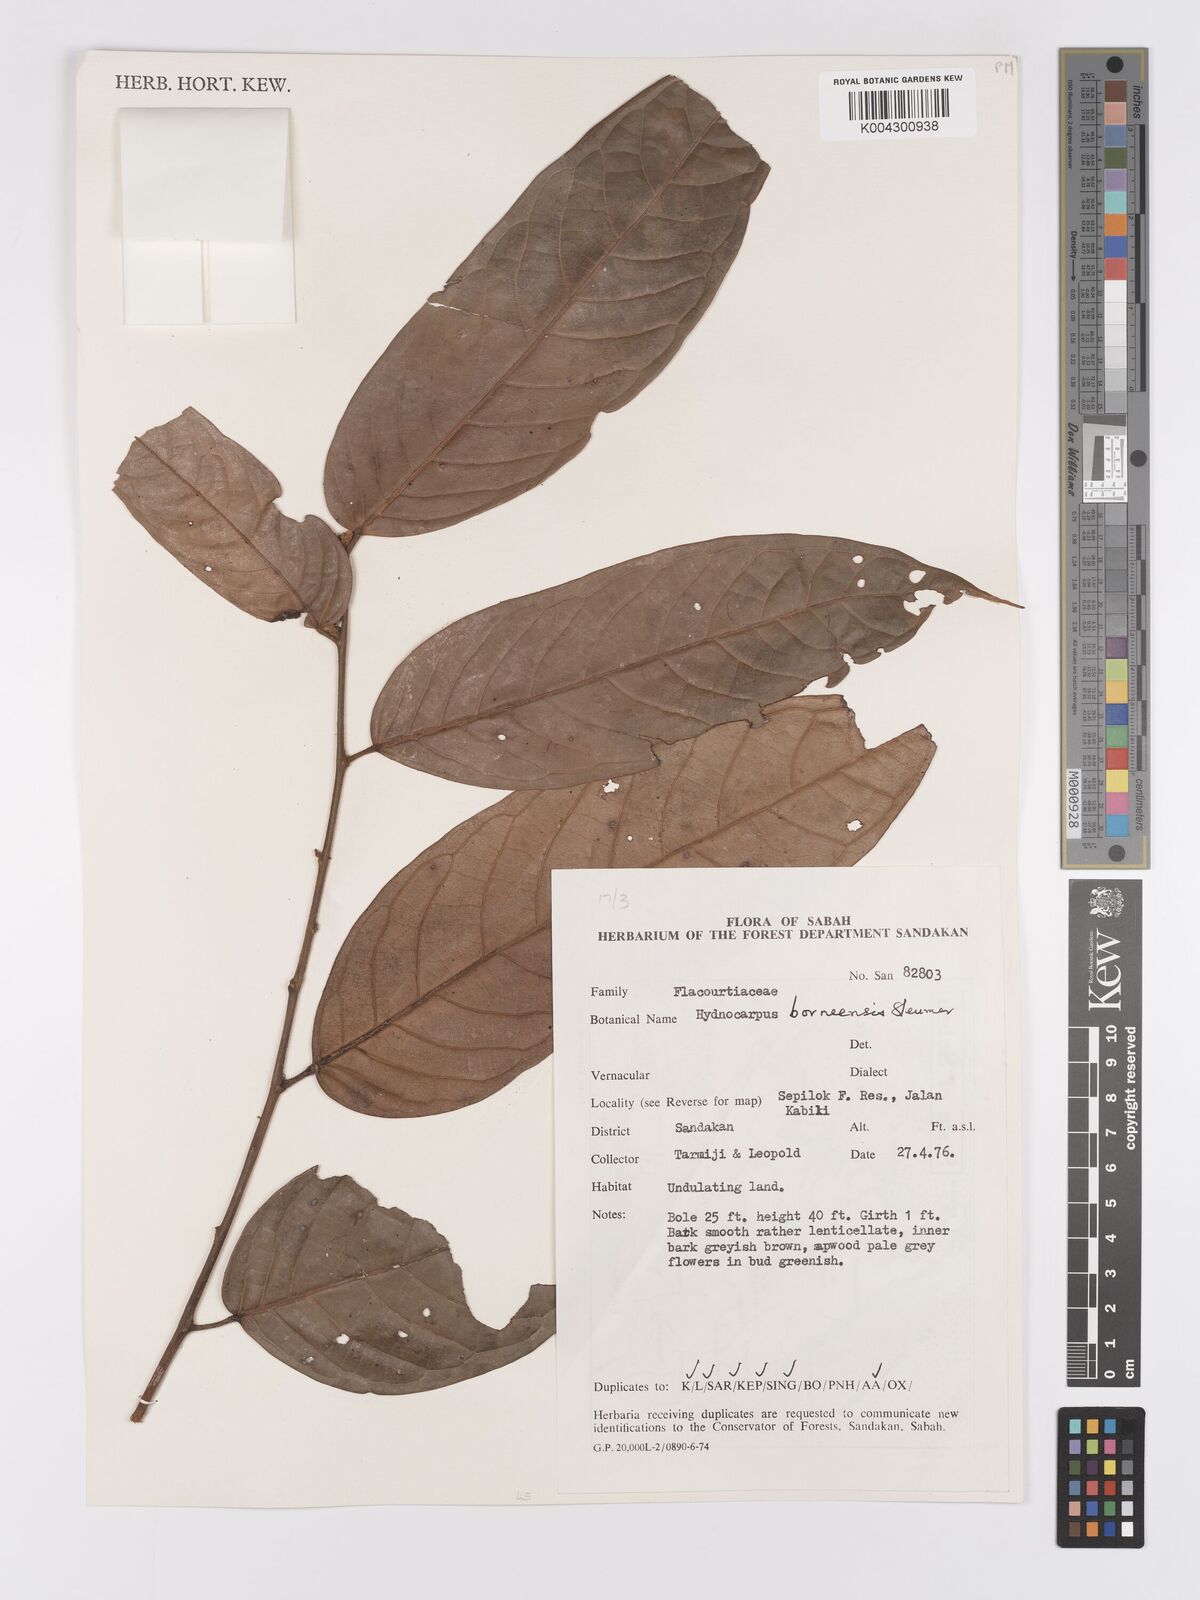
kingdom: Plantae
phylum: Tracheophyta
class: Magnoliopsida
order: Malpighiales
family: Achariaceae
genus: Hydnocarpus
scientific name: Hydnocarpus borneensis
